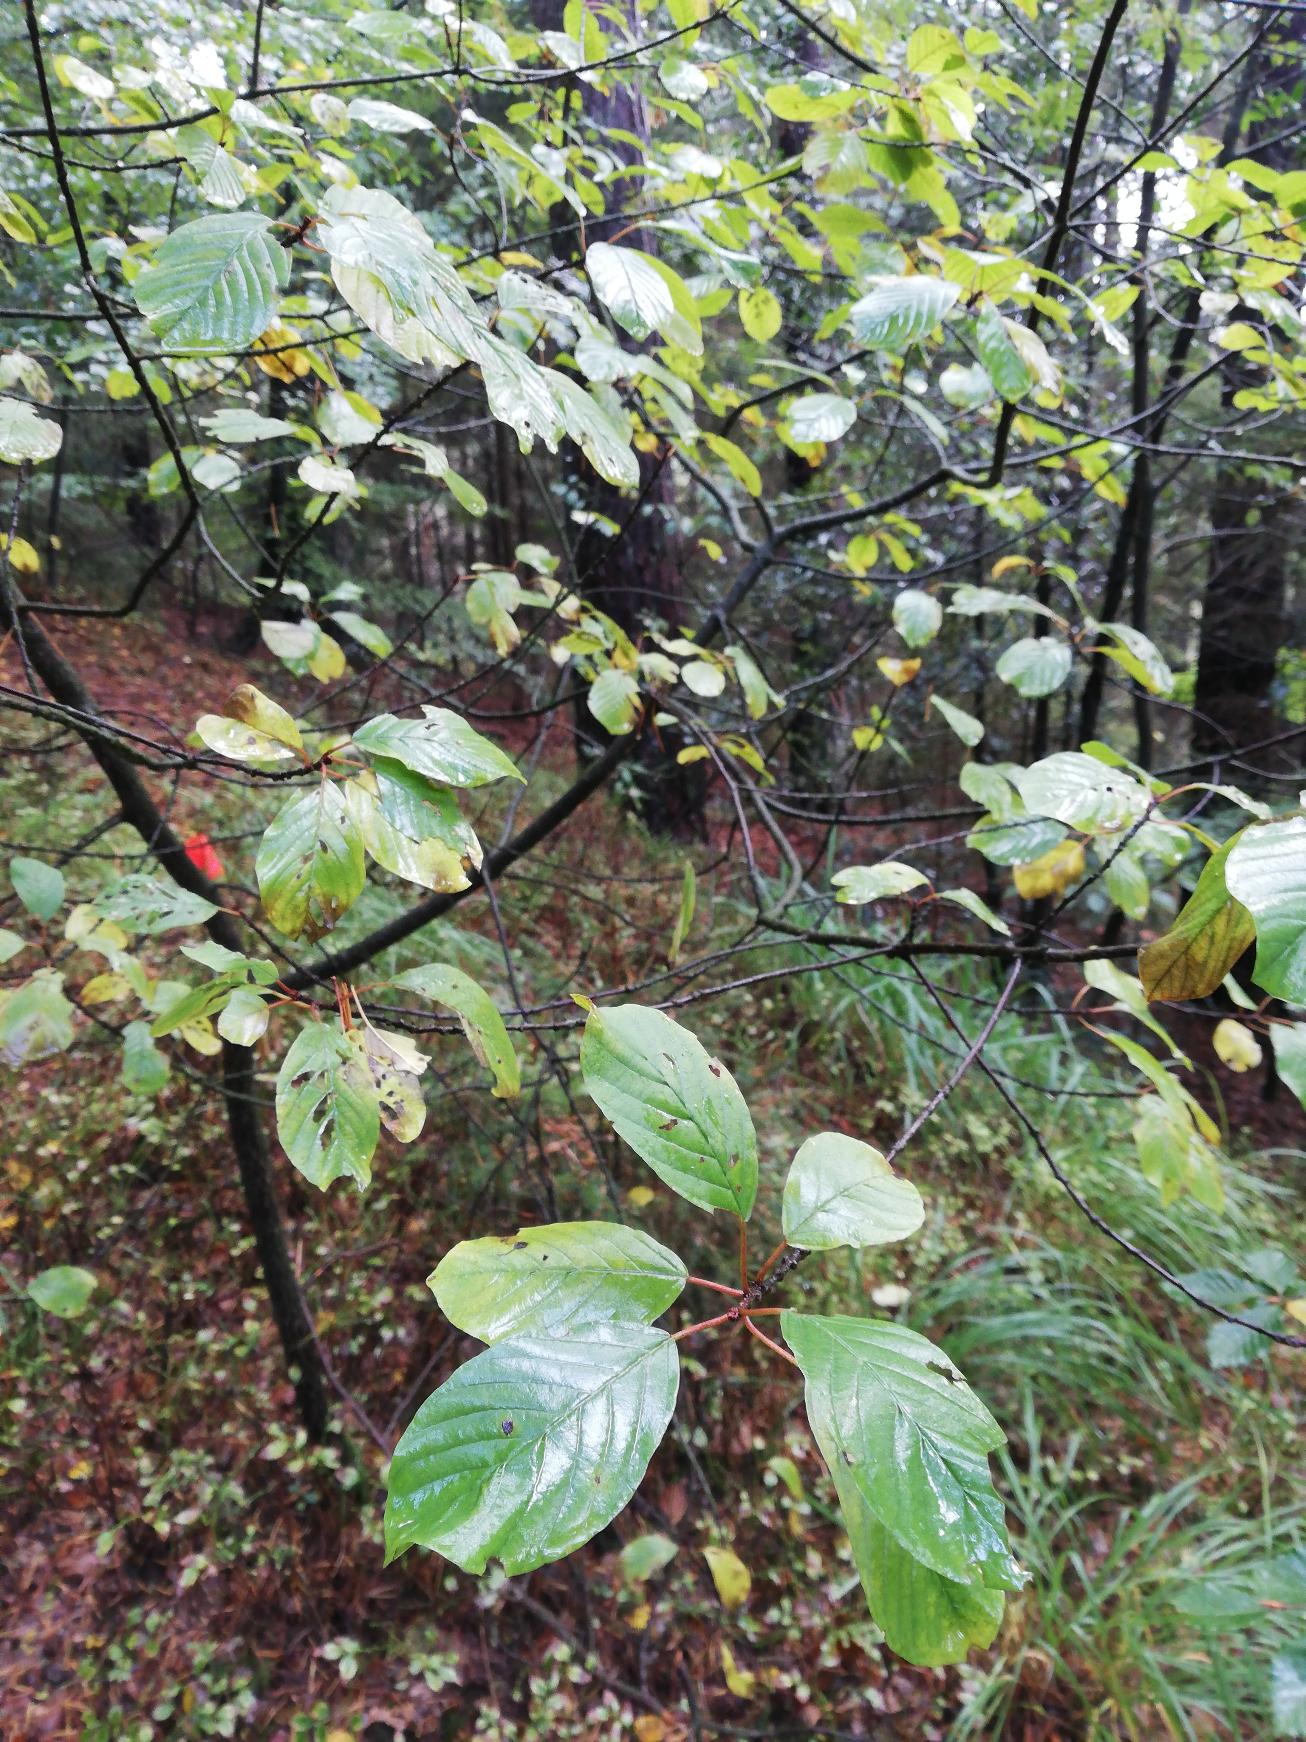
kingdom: Plantae
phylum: Tracheophyta
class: Magnoliopsida
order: Rosales
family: Rhamnaceae
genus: Frangula
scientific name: Frangula alnus
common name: Tørst
